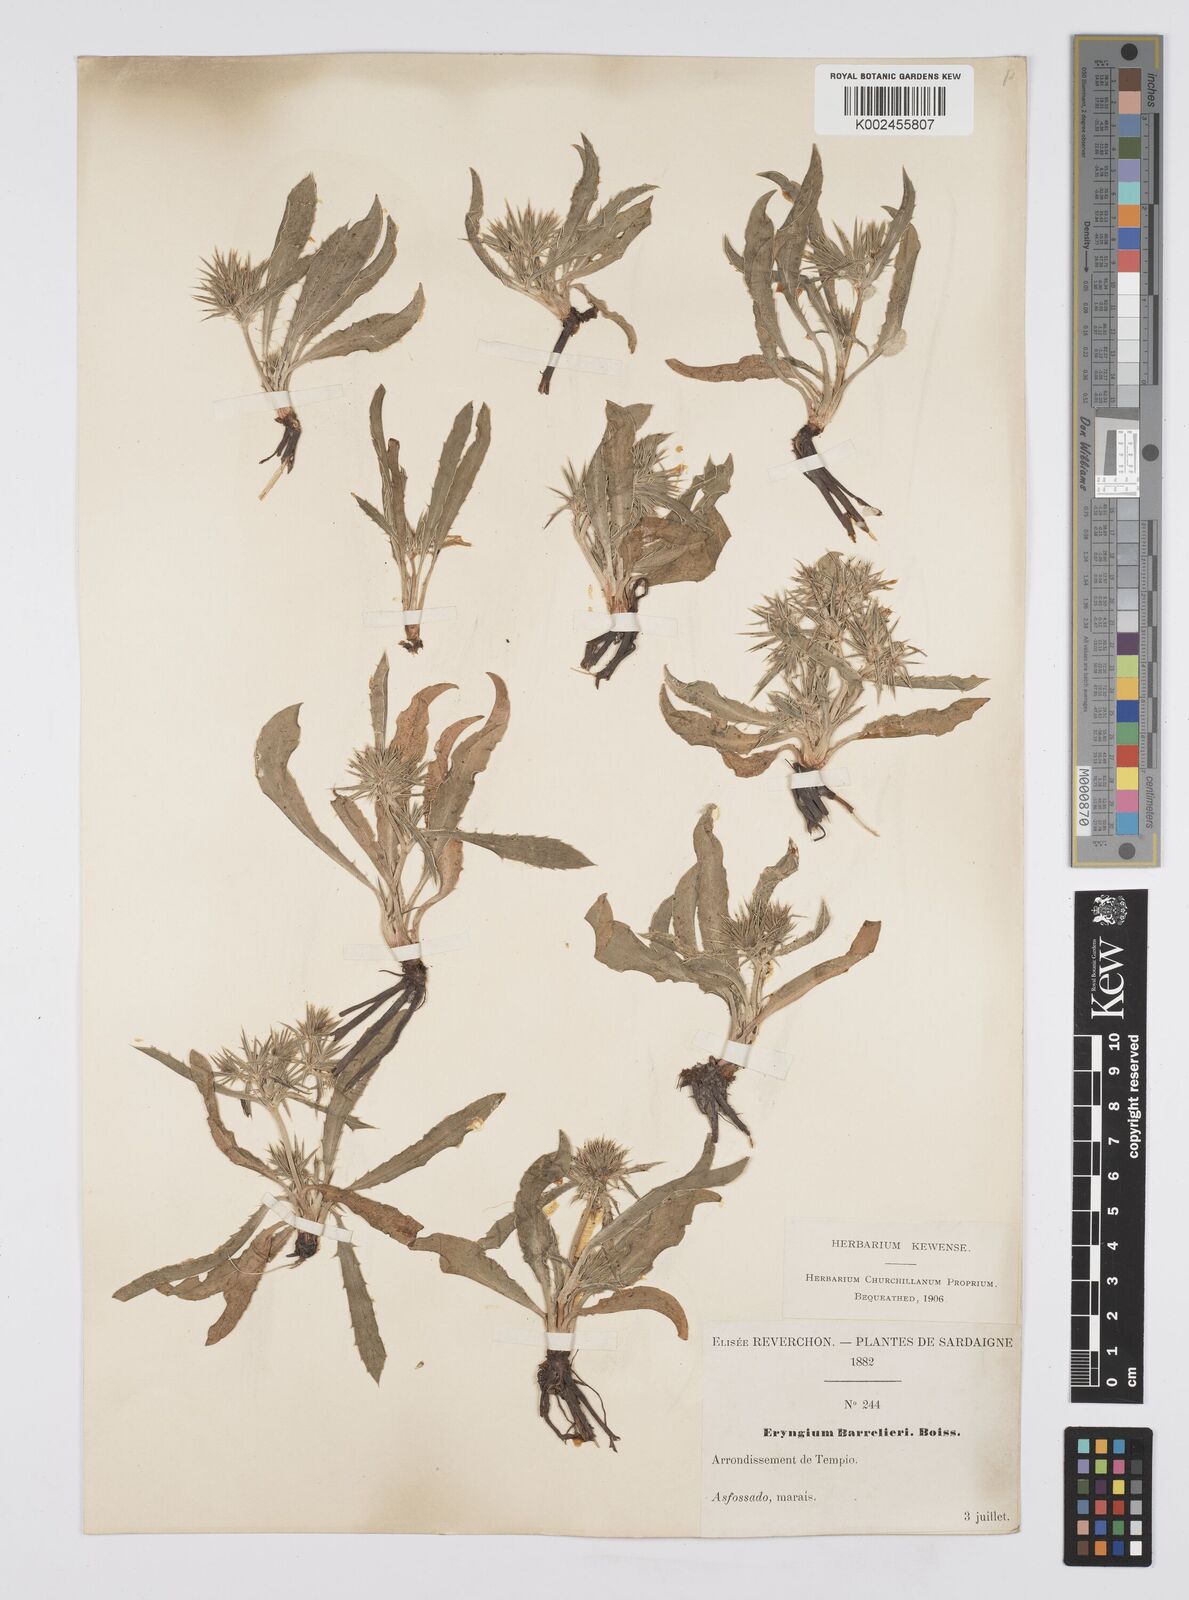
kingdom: Plantae
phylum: Tracheophyta
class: Magnoliopsida
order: Apiales
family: Apiaceae
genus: Eryngium
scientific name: Eryngium pusillum
